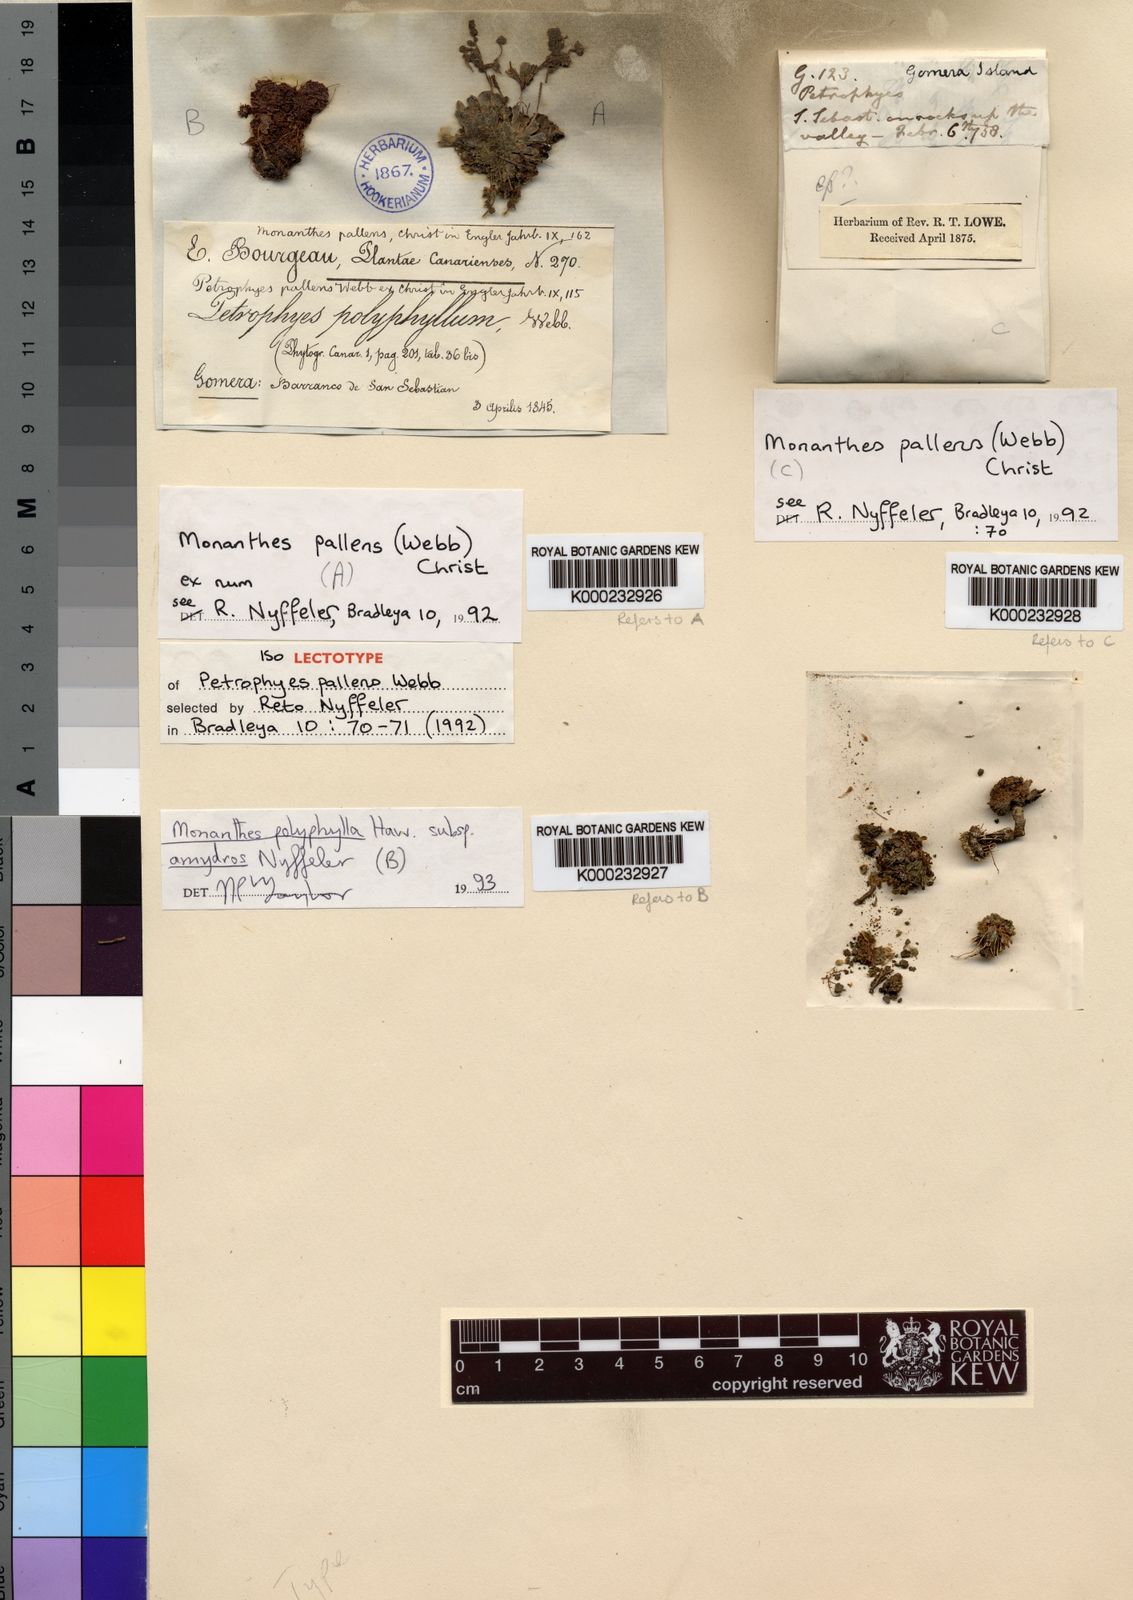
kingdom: Plantae
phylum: Tracheophyta
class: Magnoliopsida
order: Saxifragales
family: Crassulaceae
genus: Monanthes
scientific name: Monanthes pallens
